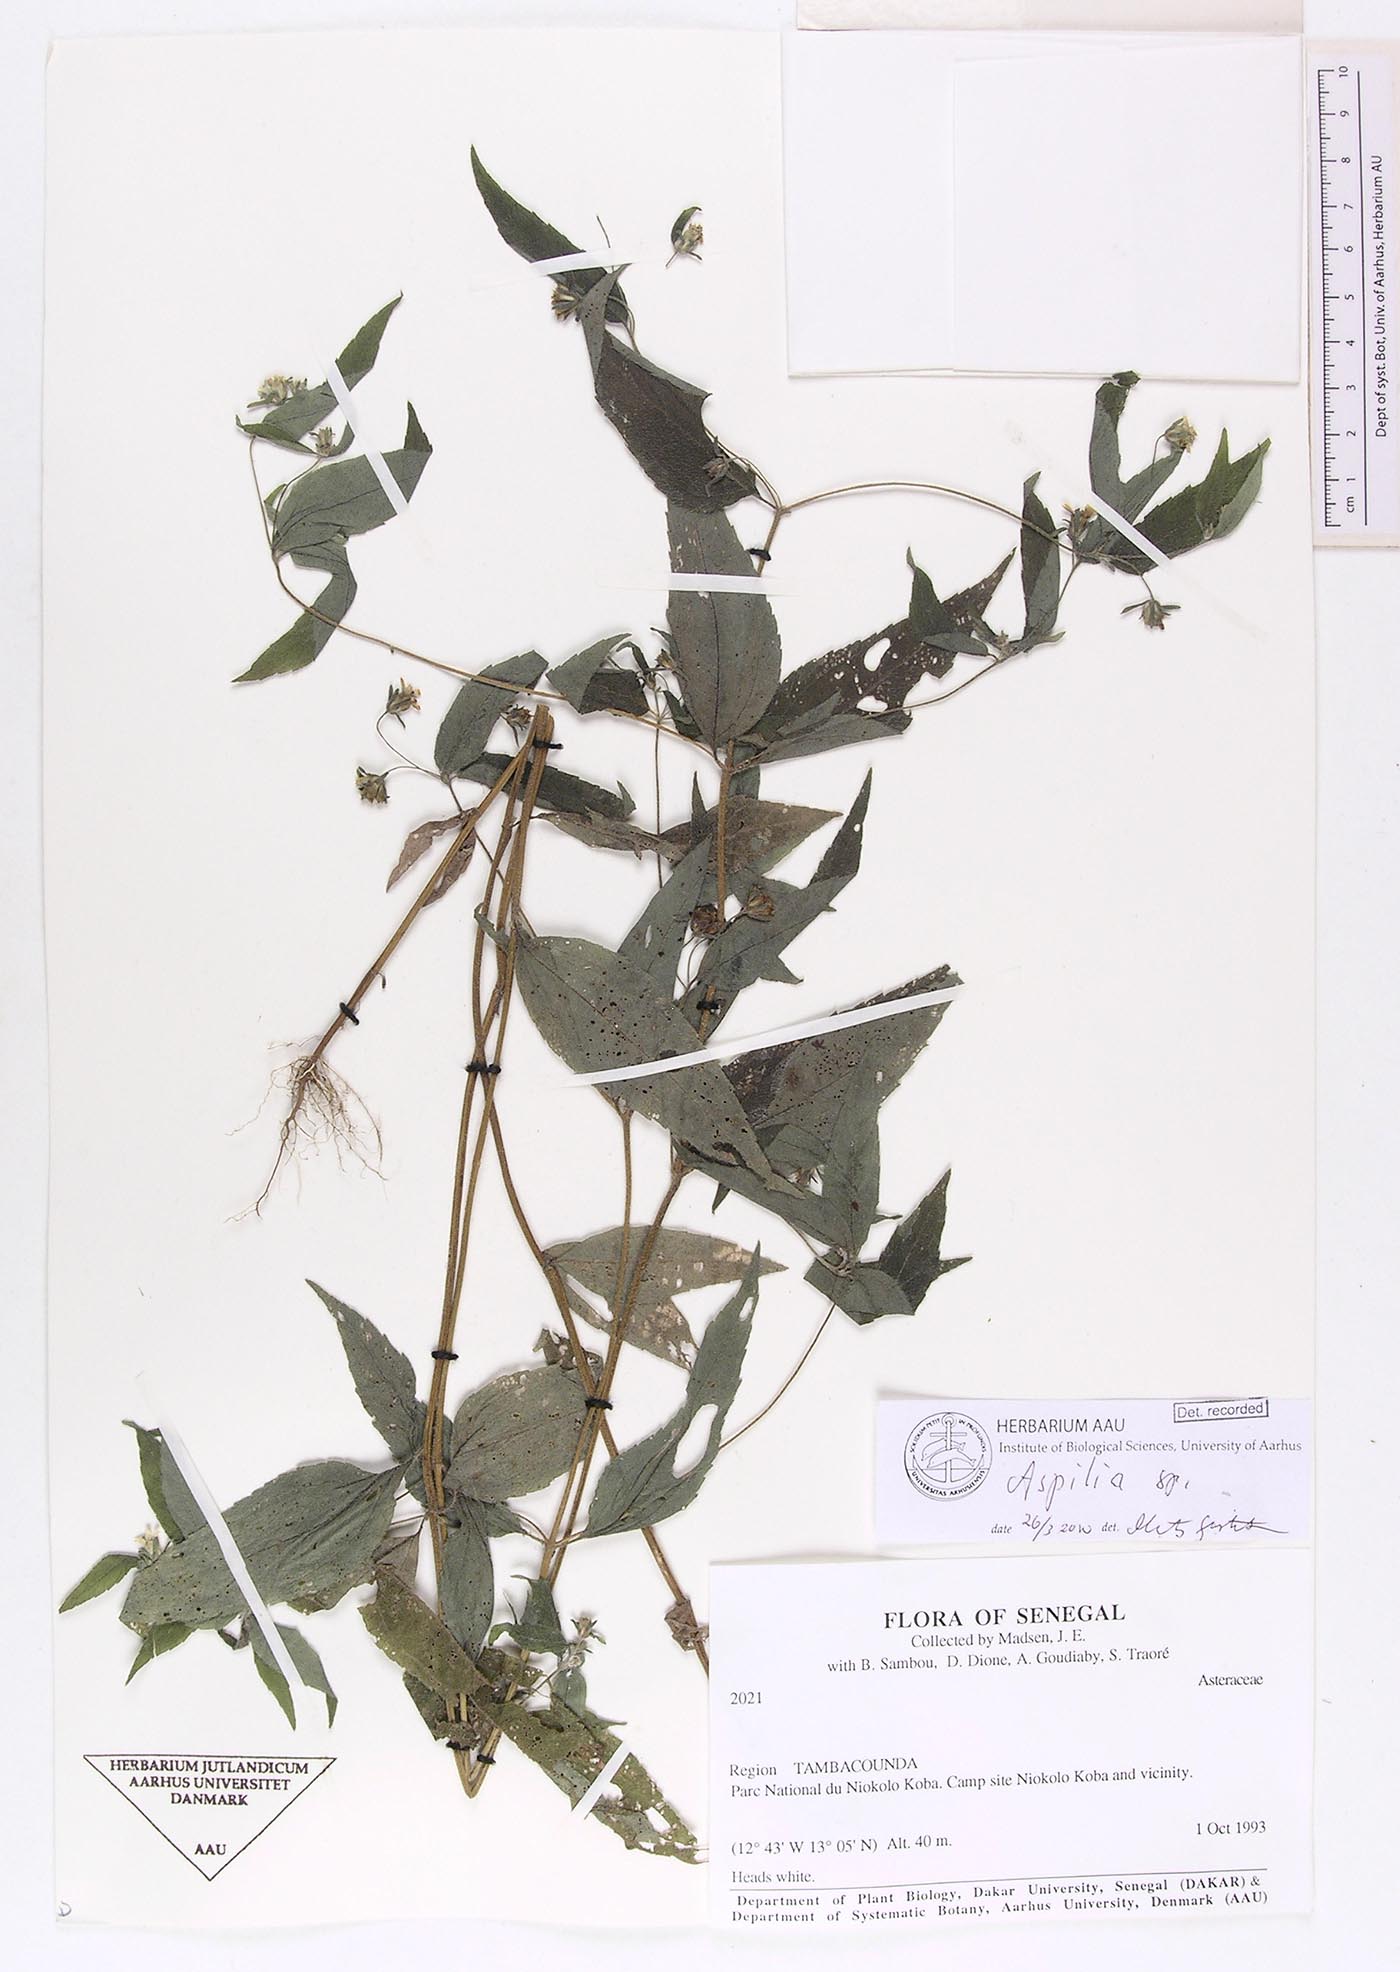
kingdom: Plantae
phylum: Tracheophyta
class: Magnoliopsida
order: Asterales
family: Asteraceae
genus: Aspilia
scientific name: Aspilia
